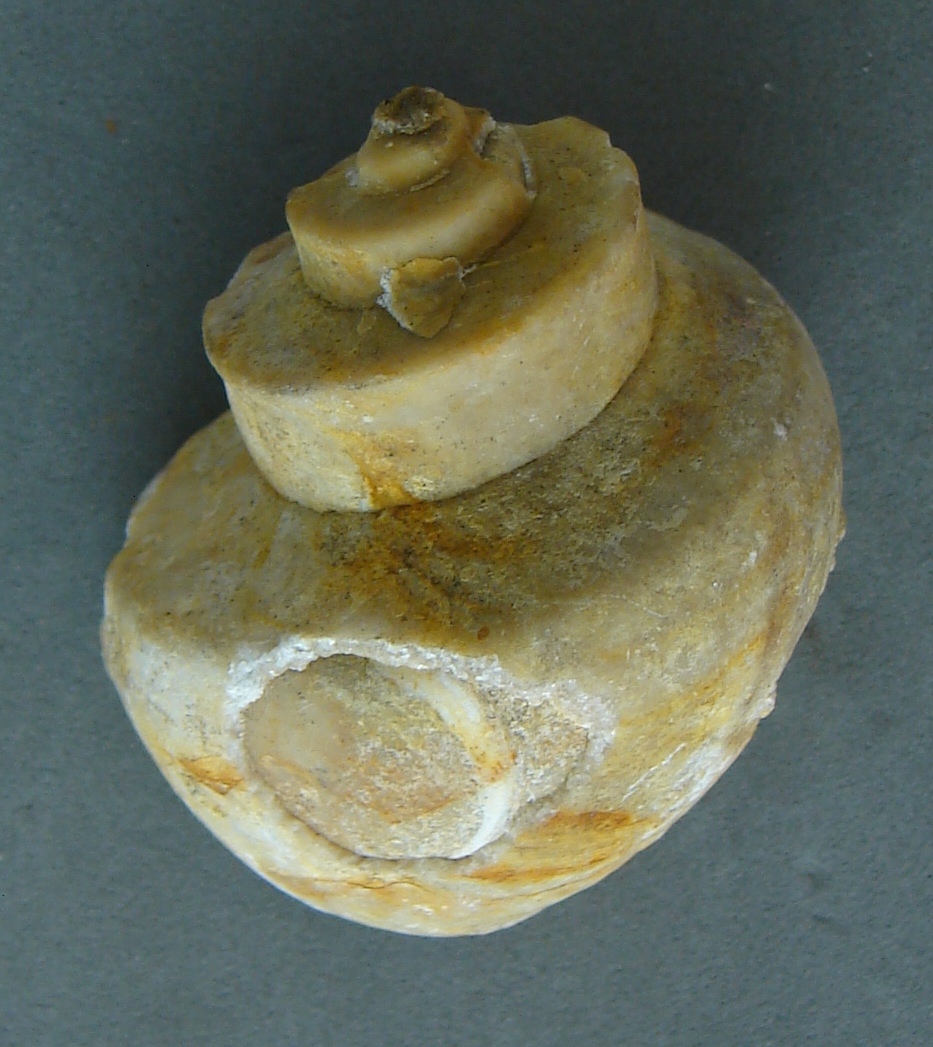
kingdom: Animalia
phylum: Mollusca
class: Gastropoda
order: Neogastropoda
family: Purpurinidae
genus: Tretospira
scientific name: Tretospira
